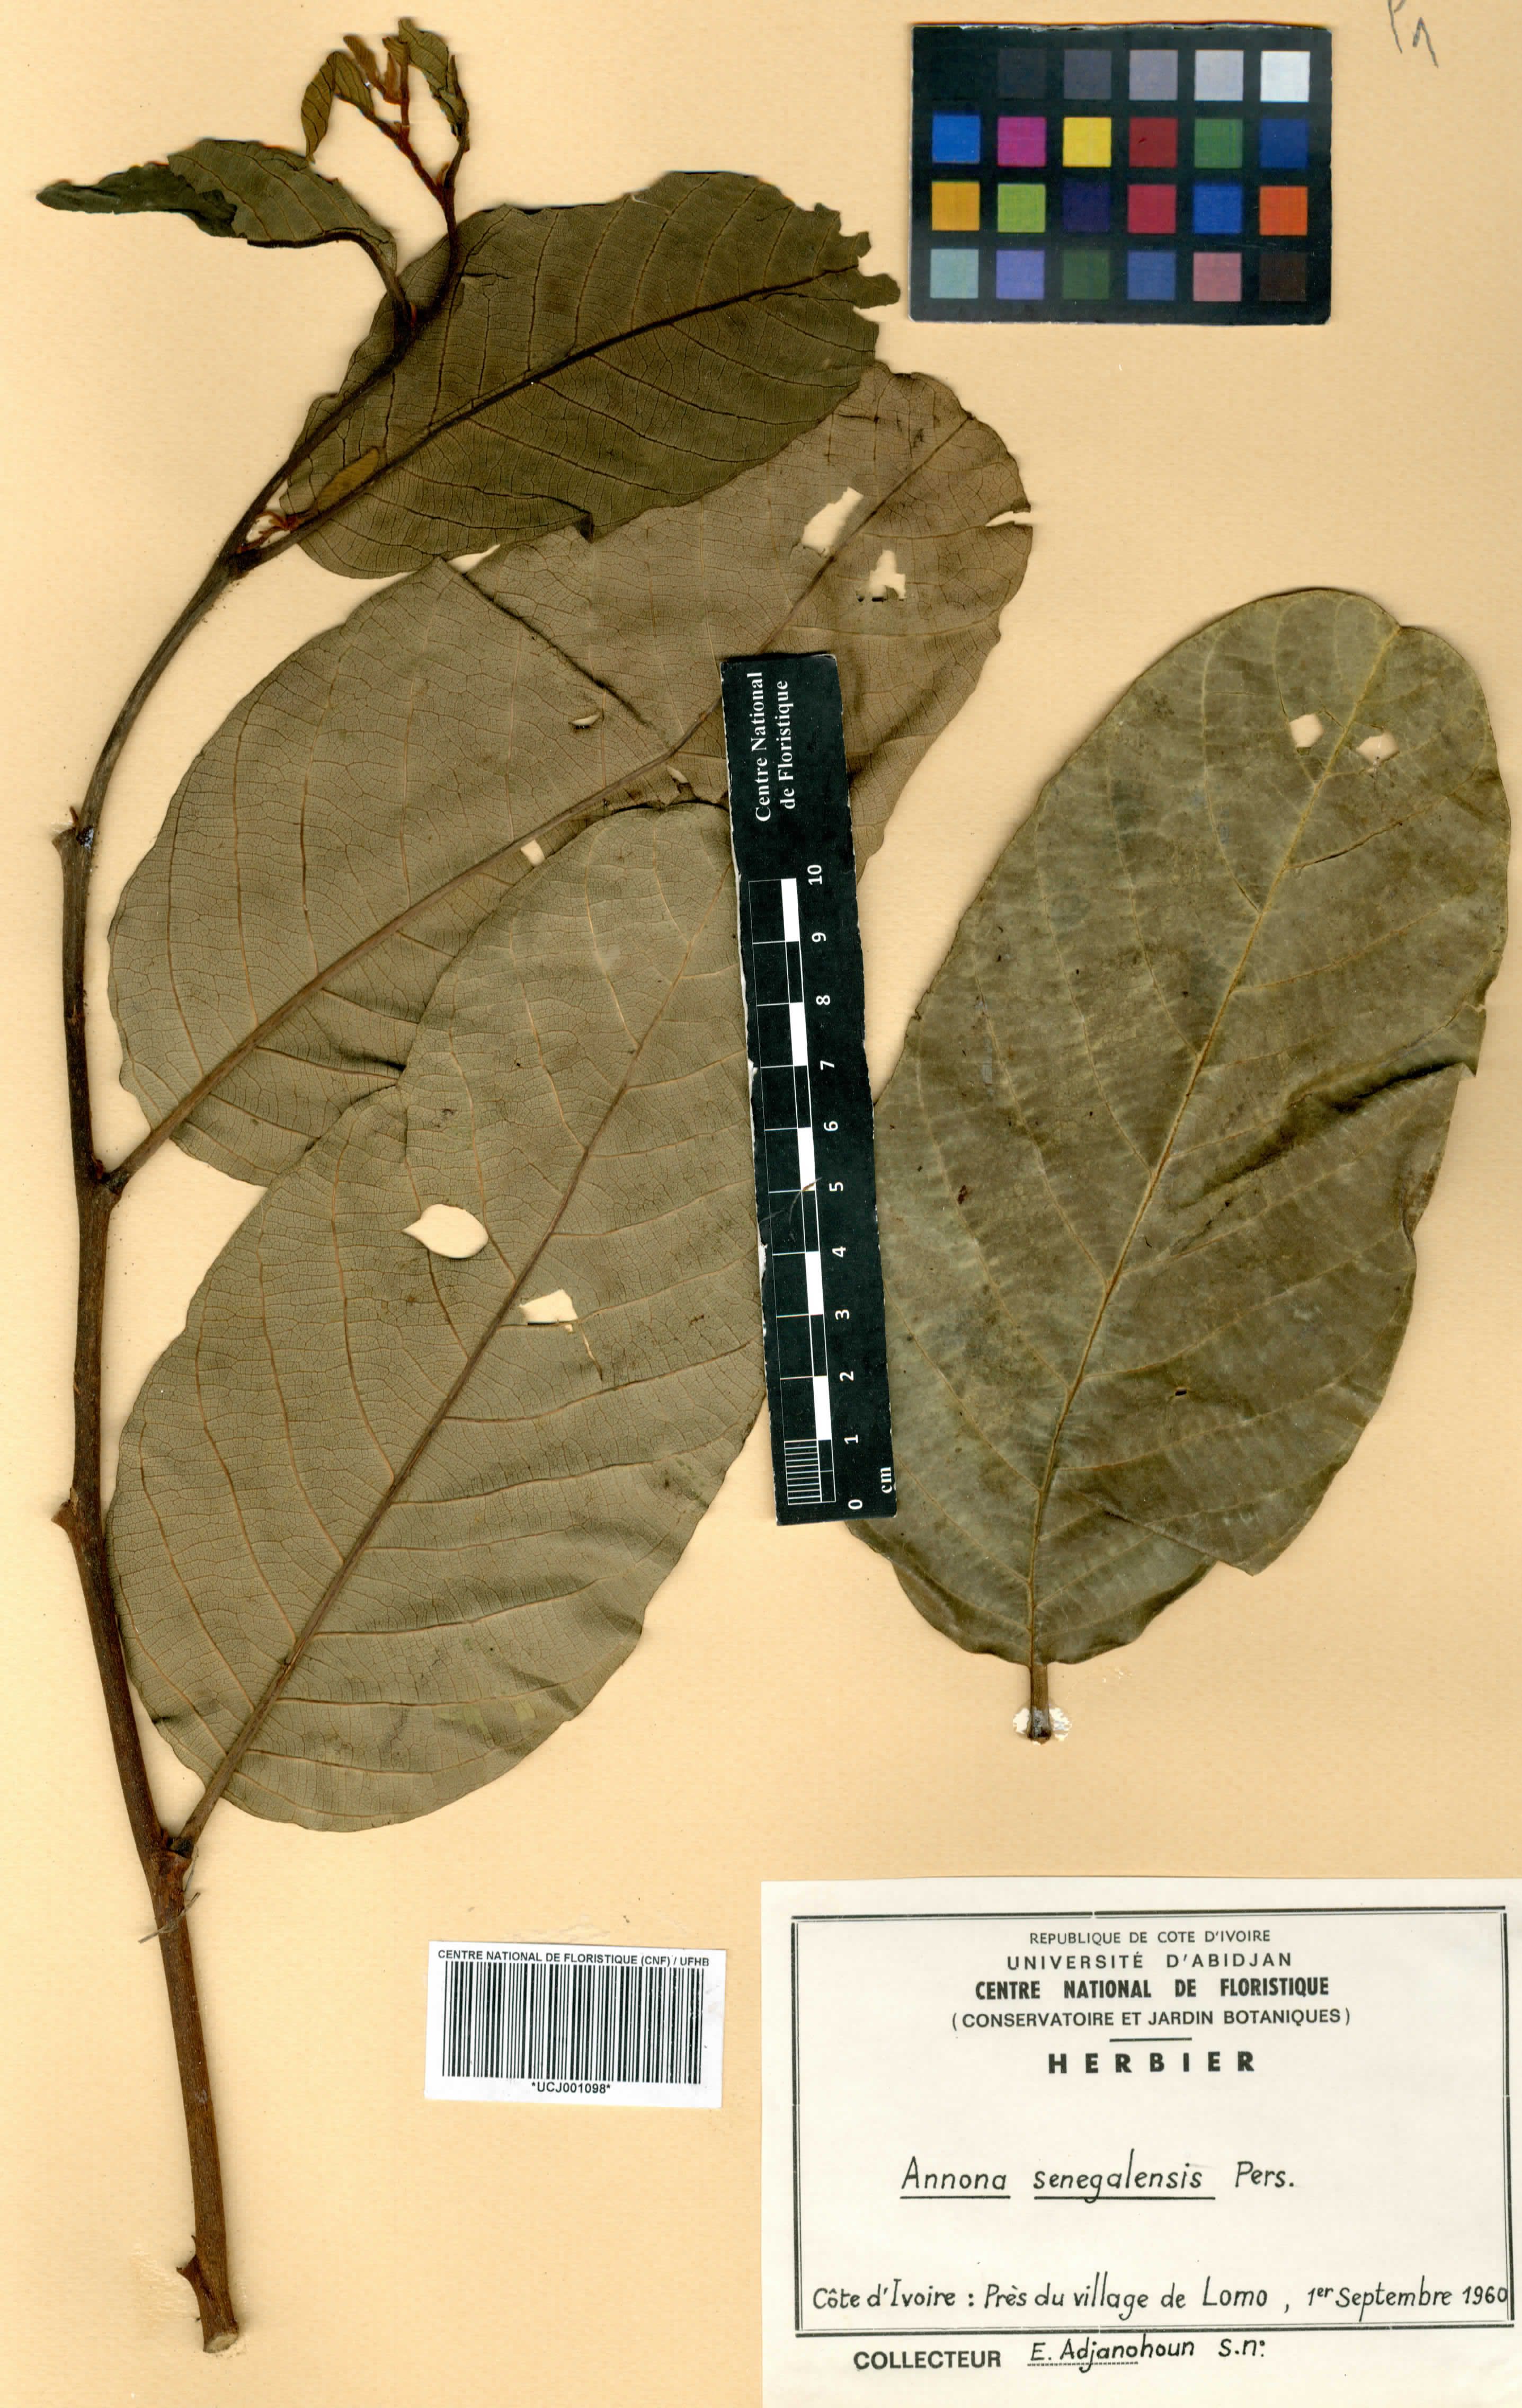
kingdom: Plantae
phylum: Tracheophyta
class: Magnoliopsida
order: Magnoliales
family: Annonaceae
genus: Annona
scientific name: Annona senegalensis
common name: Wild custard-apple
